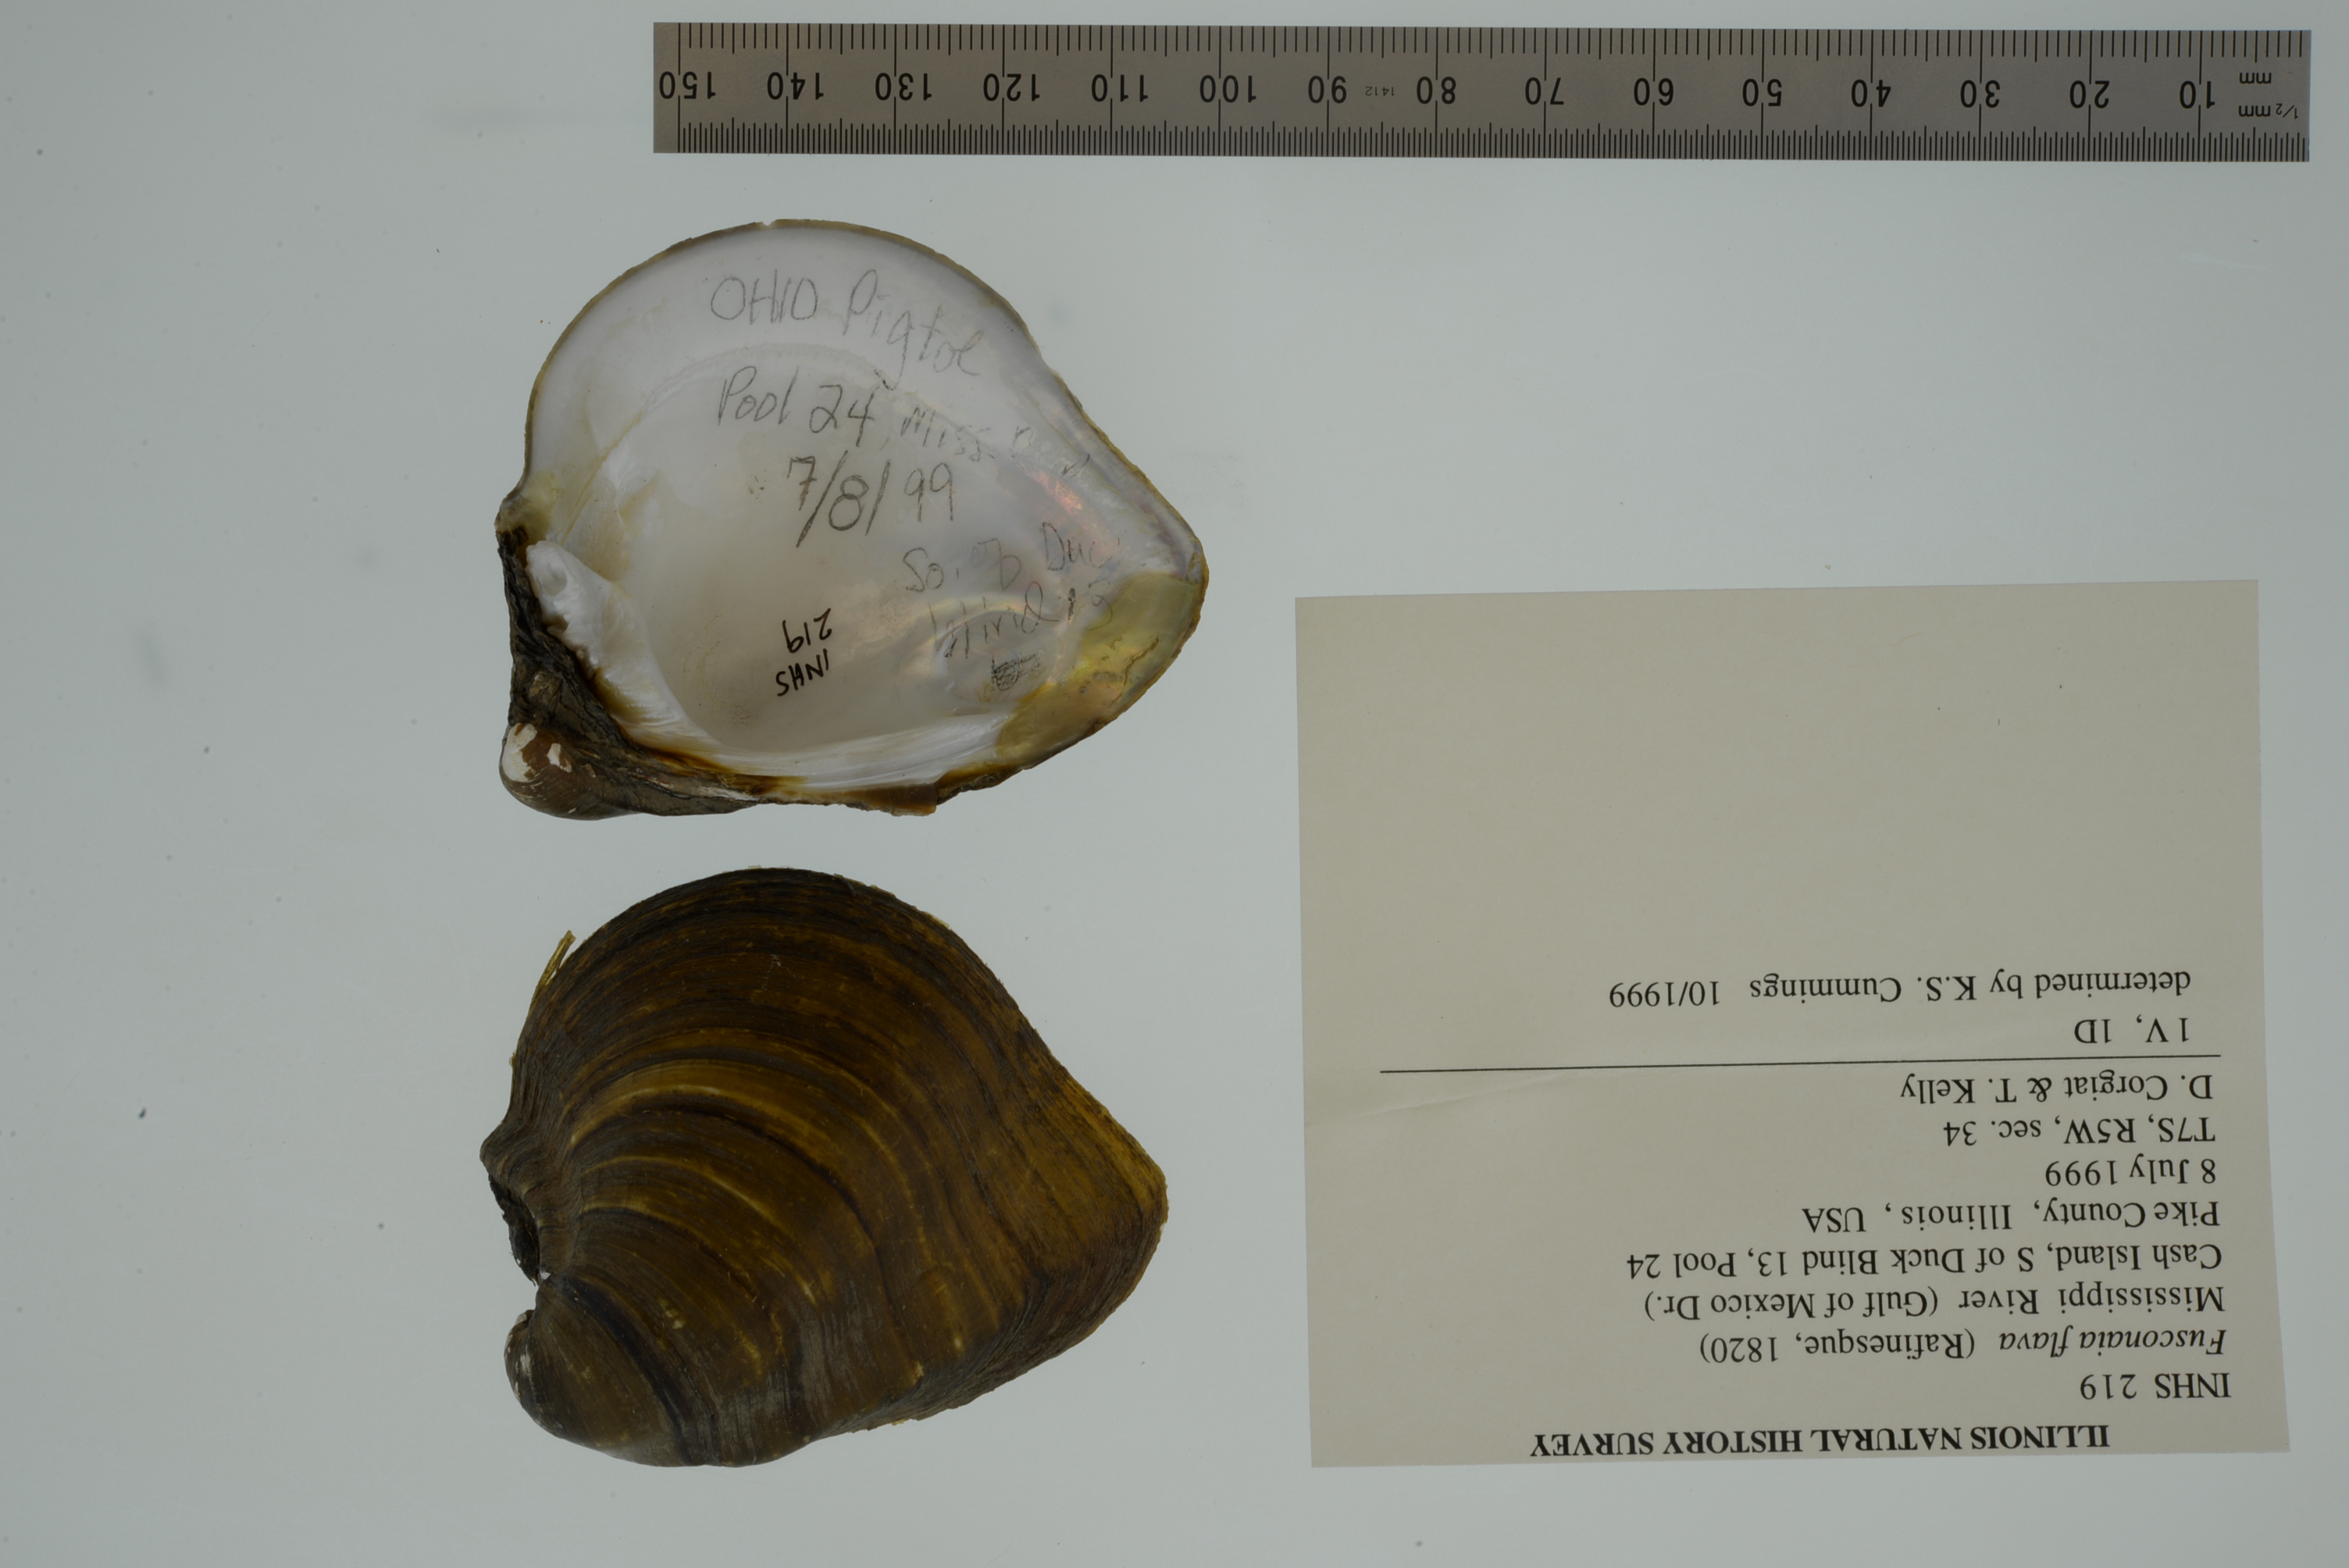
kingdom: Animalia
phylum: Mollusca
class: Bivalvia
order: Unionida
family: Unionidae
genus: Fusconaia
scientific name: Fusconaia flava
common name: Wabash pigtoe
